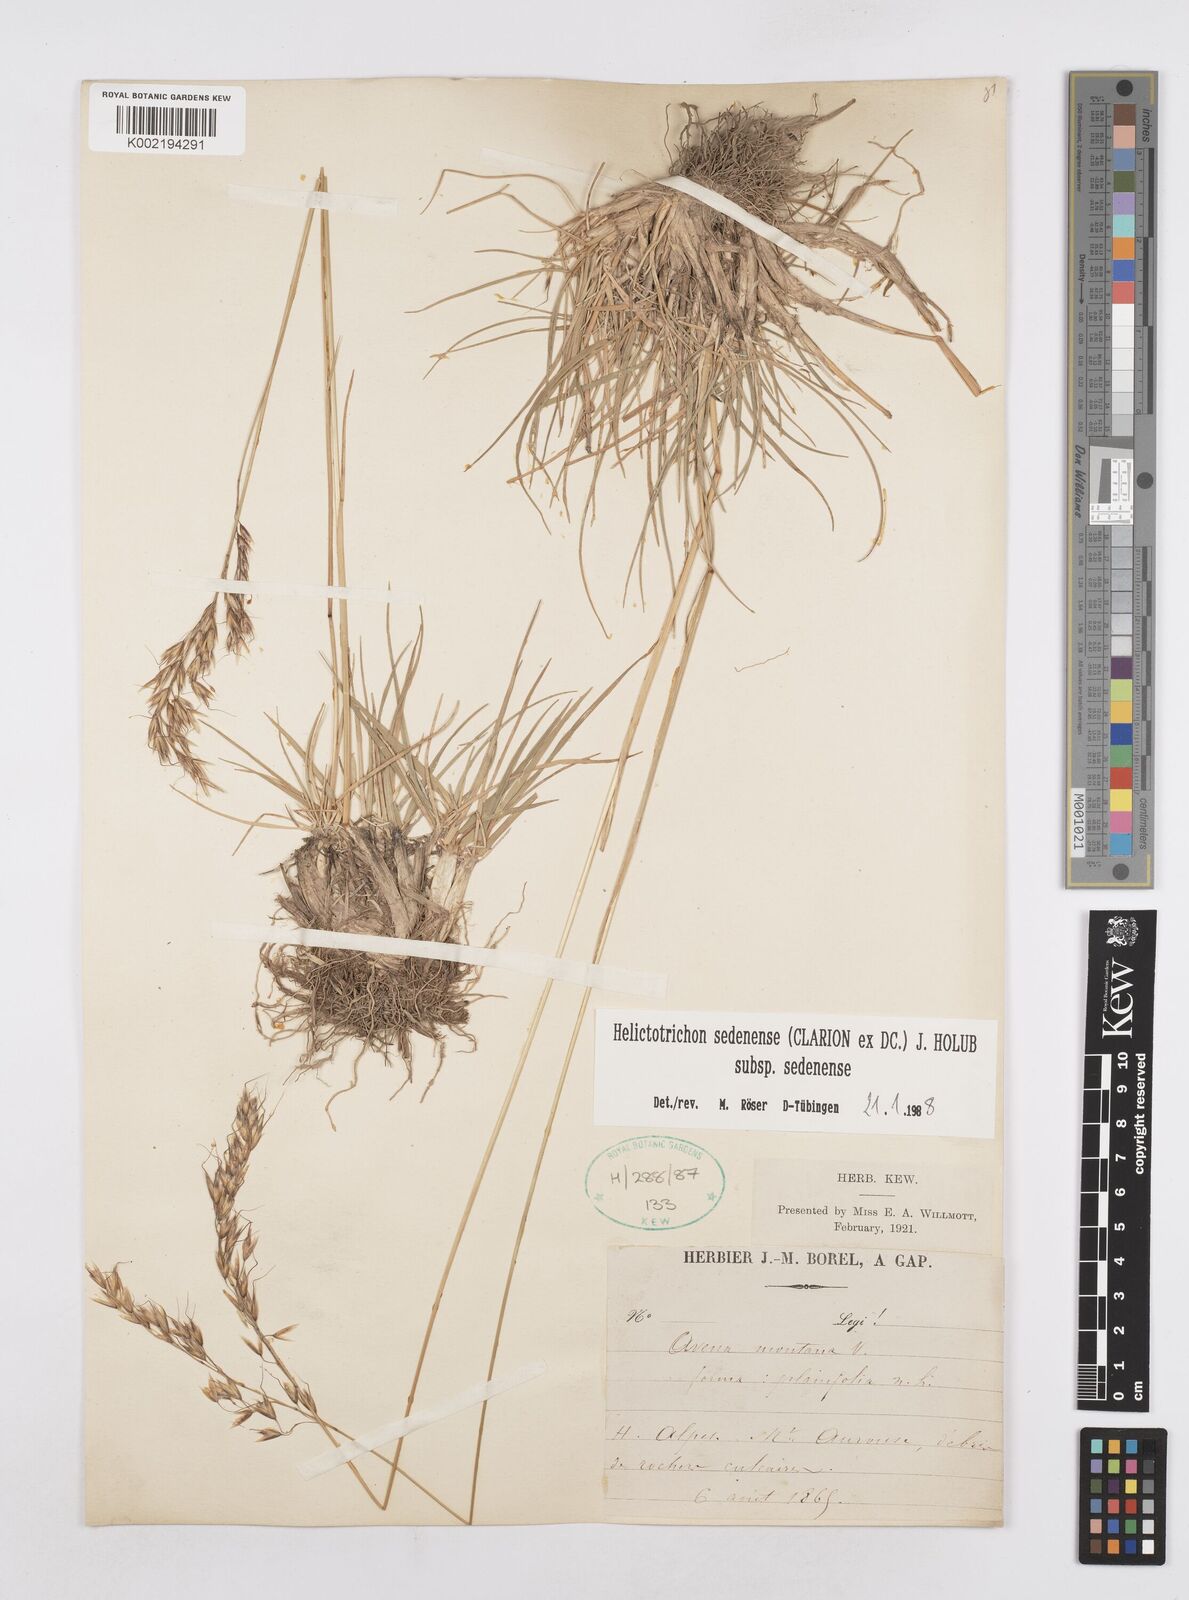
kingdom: Plantae
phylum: Tracheophyta
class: Liliopsida
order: Poales
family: Poaceae
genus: Helictotrichon
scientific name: Helictotrichon sedenense
